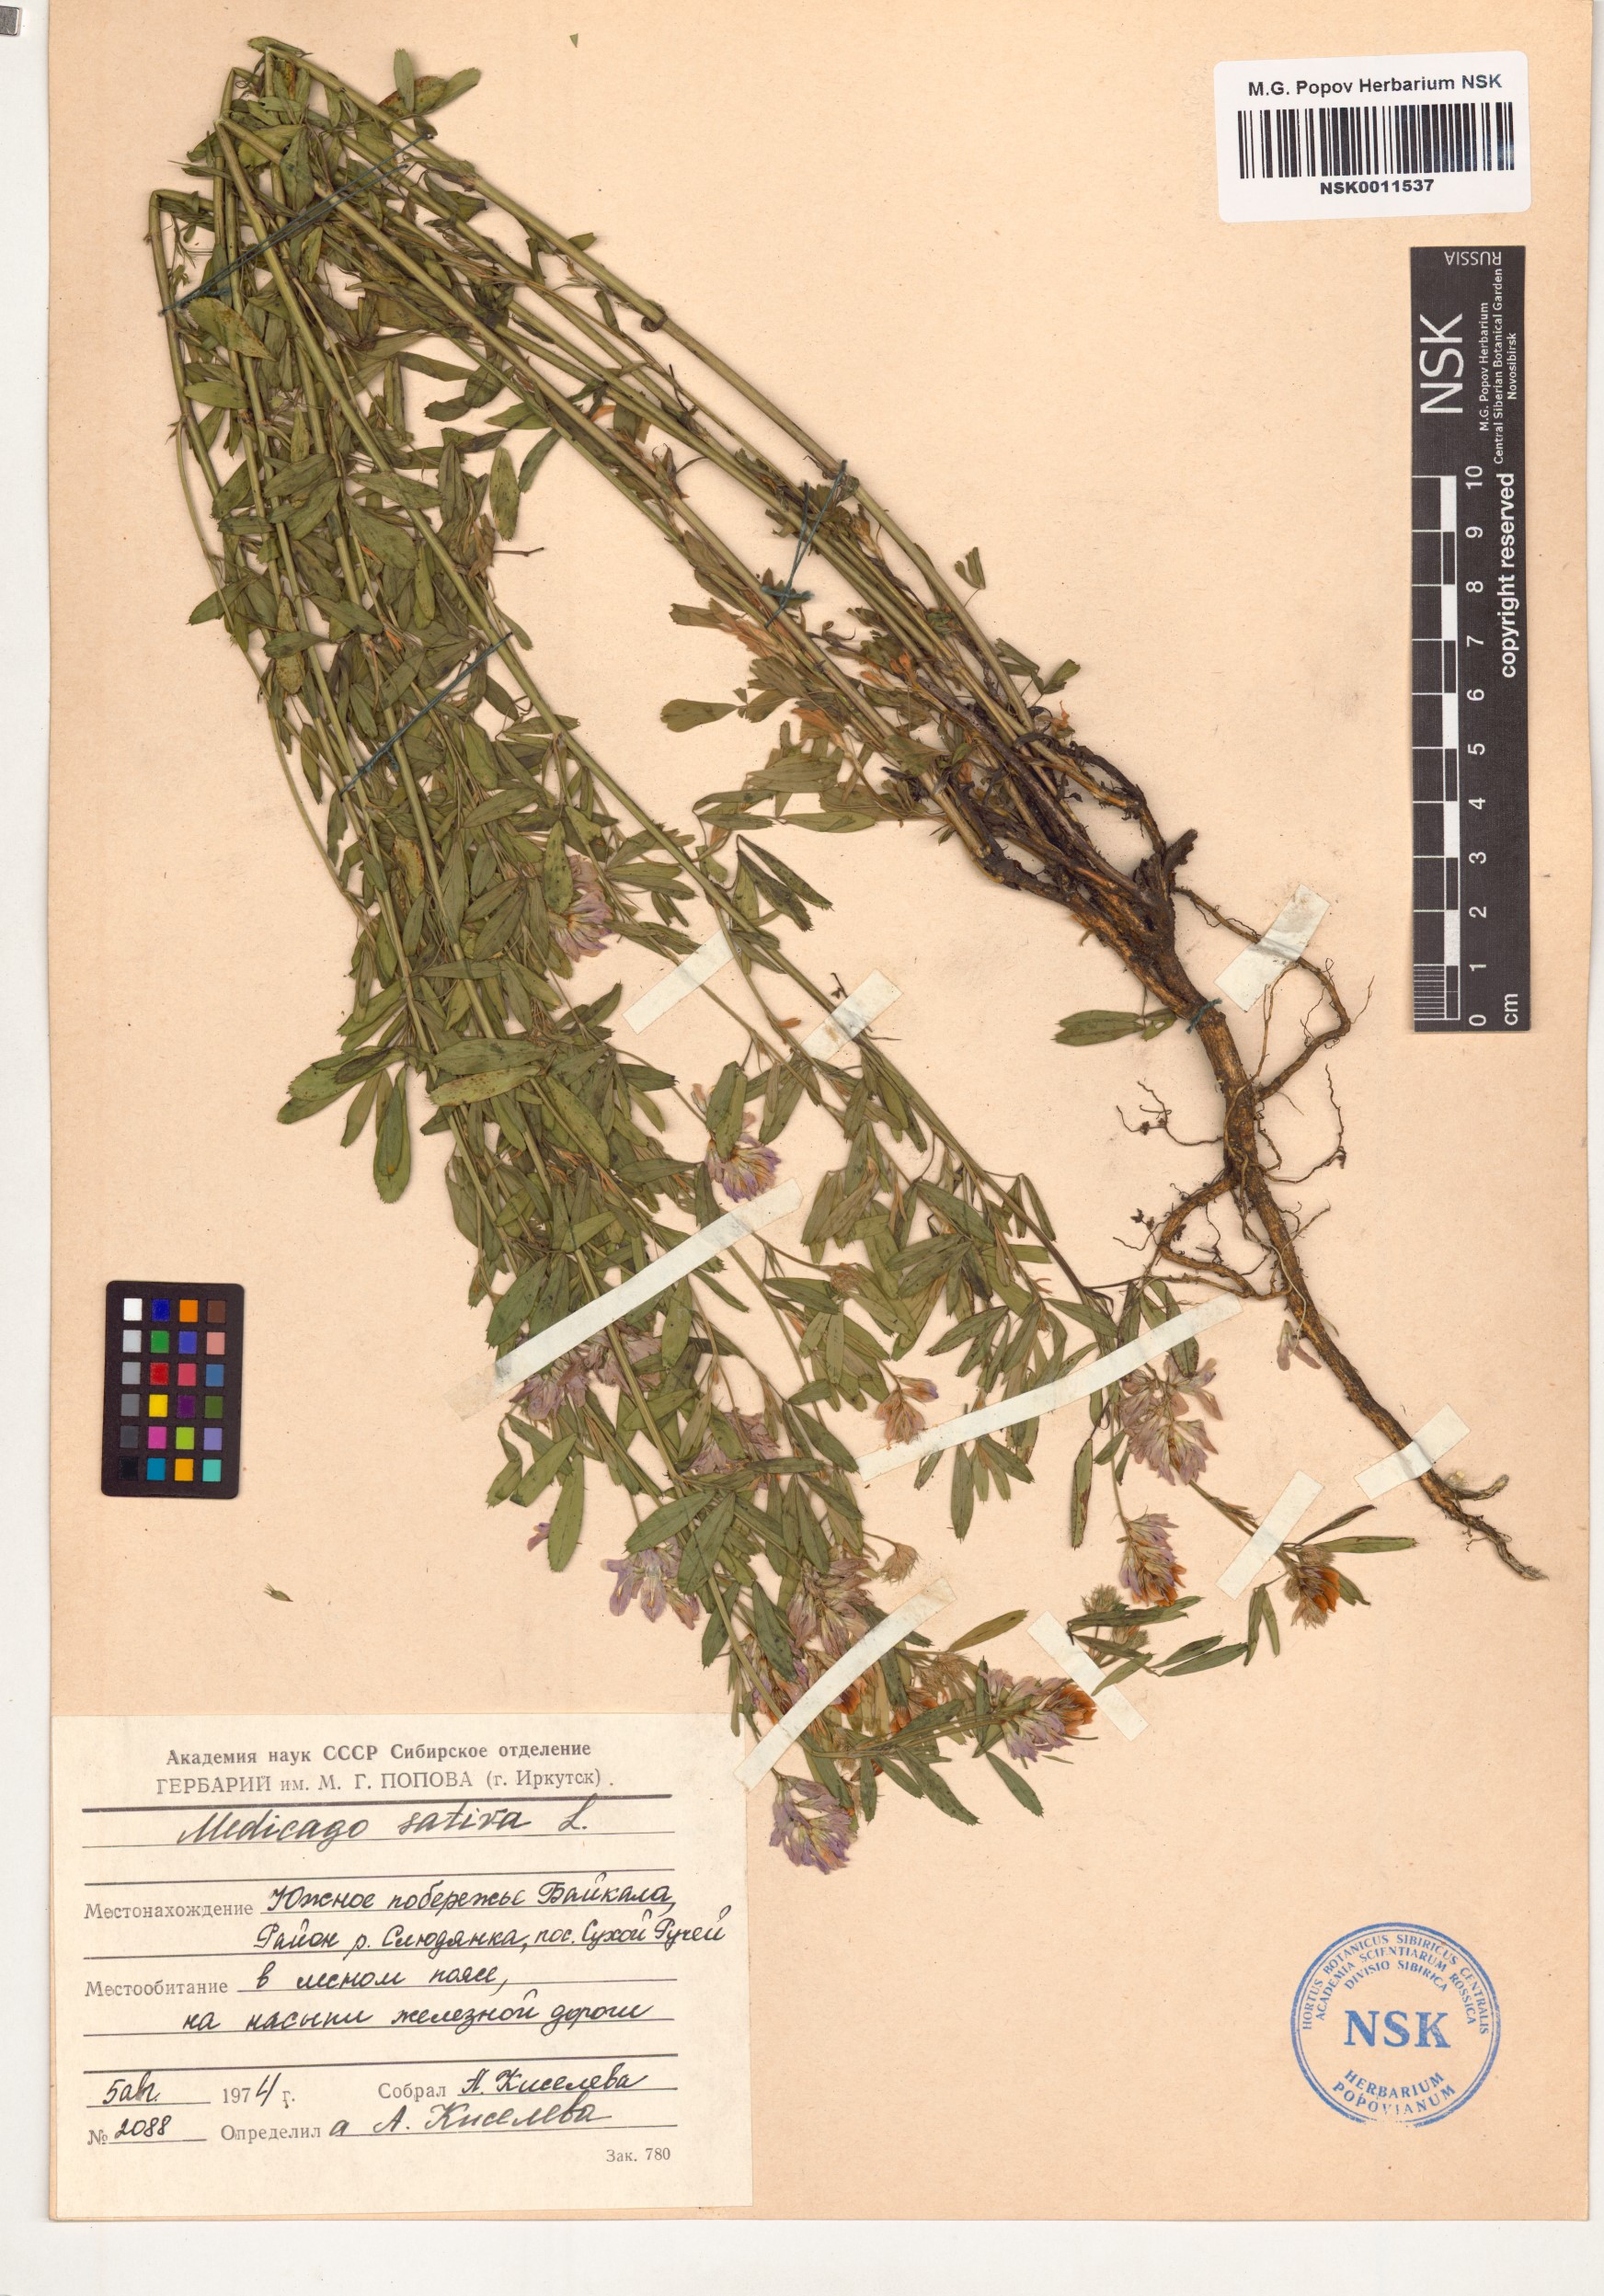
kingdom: Plantae
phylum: Tracheophyta
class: Magnoliopsida
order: Fabales
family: Fabaceae
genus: Medicago
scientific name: Medicago sativa
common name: Alfalfa
